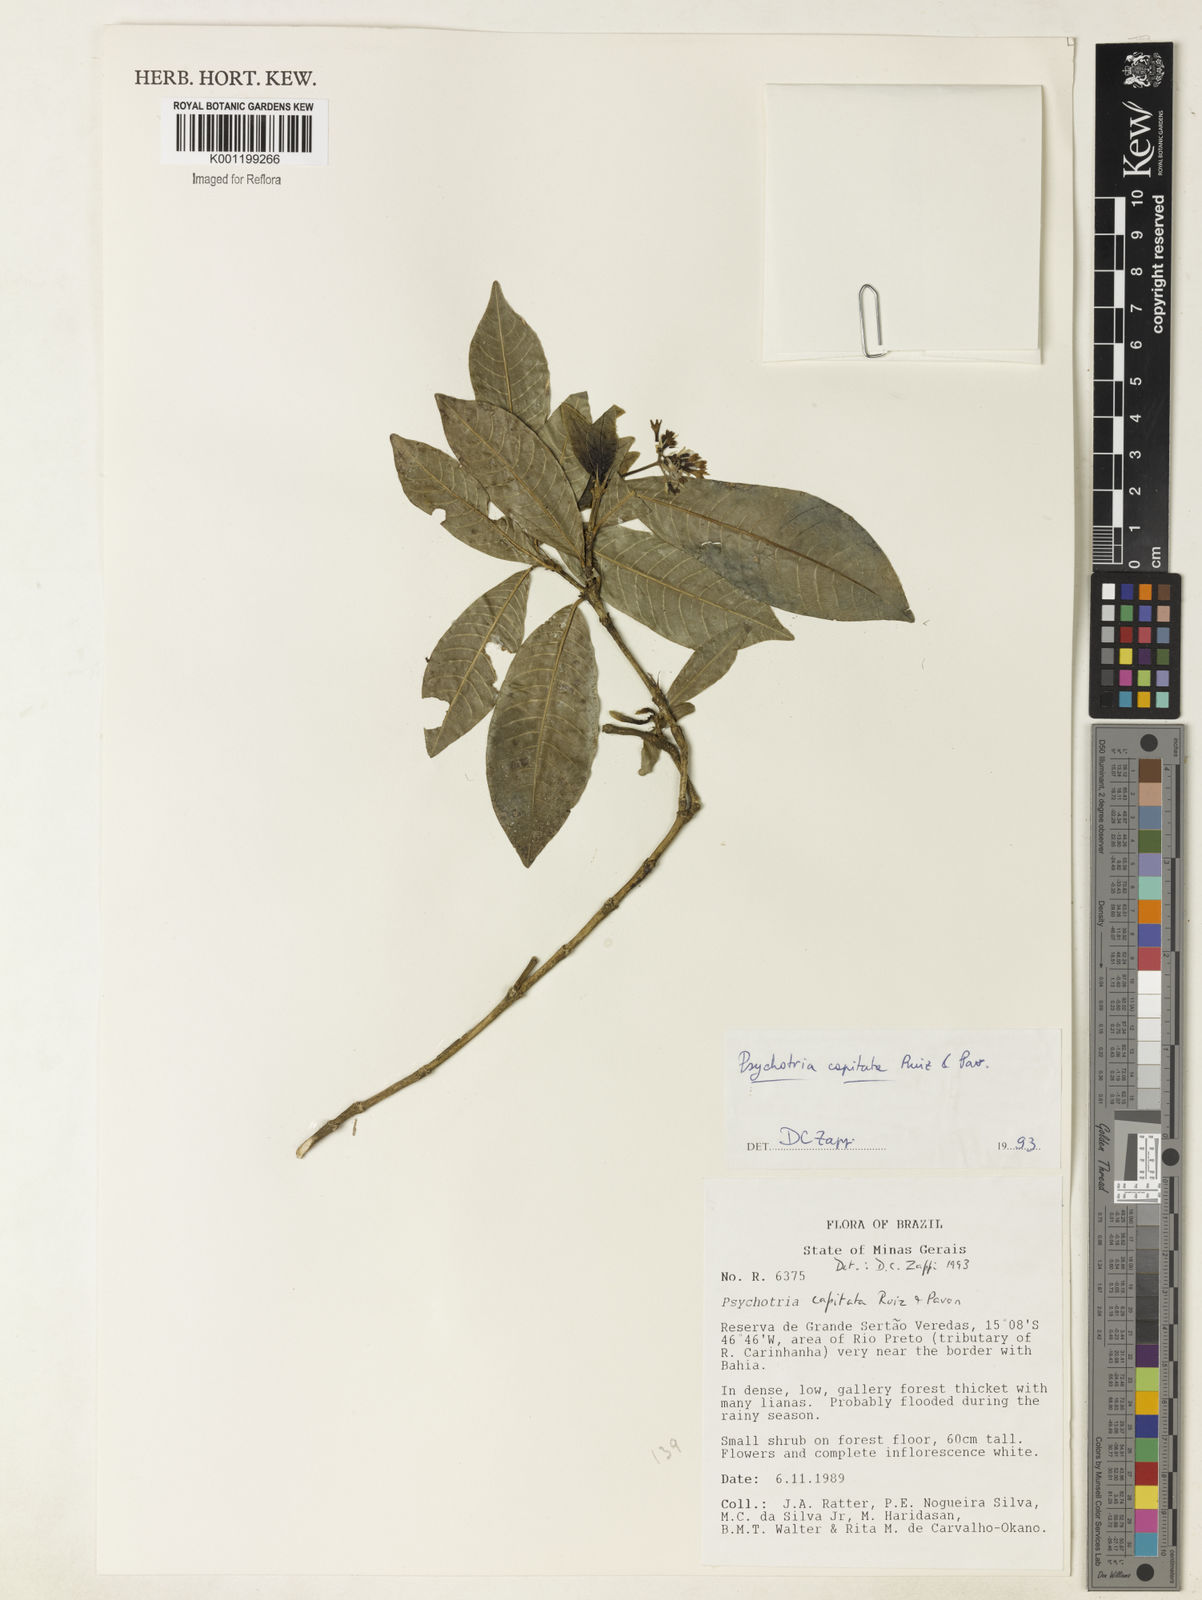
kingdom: Plantae
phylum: Tracheophyta
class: Magnoliopsida
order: Gentianales
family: Rubiaceae
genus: Palicourea
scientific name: Palicourea violacea
